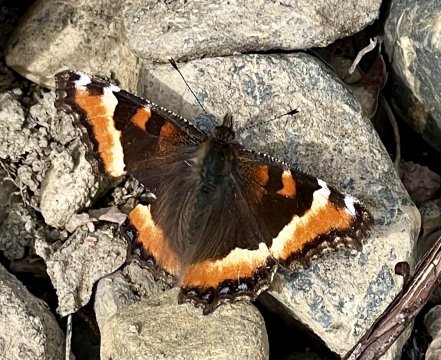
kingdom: Animalia
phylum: Arthropoda
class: Insecta
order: Lepidoptera
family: Nymphalidae
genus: Aglais
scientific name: Aglais milberti
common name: Milbert's Tortoiseshell
